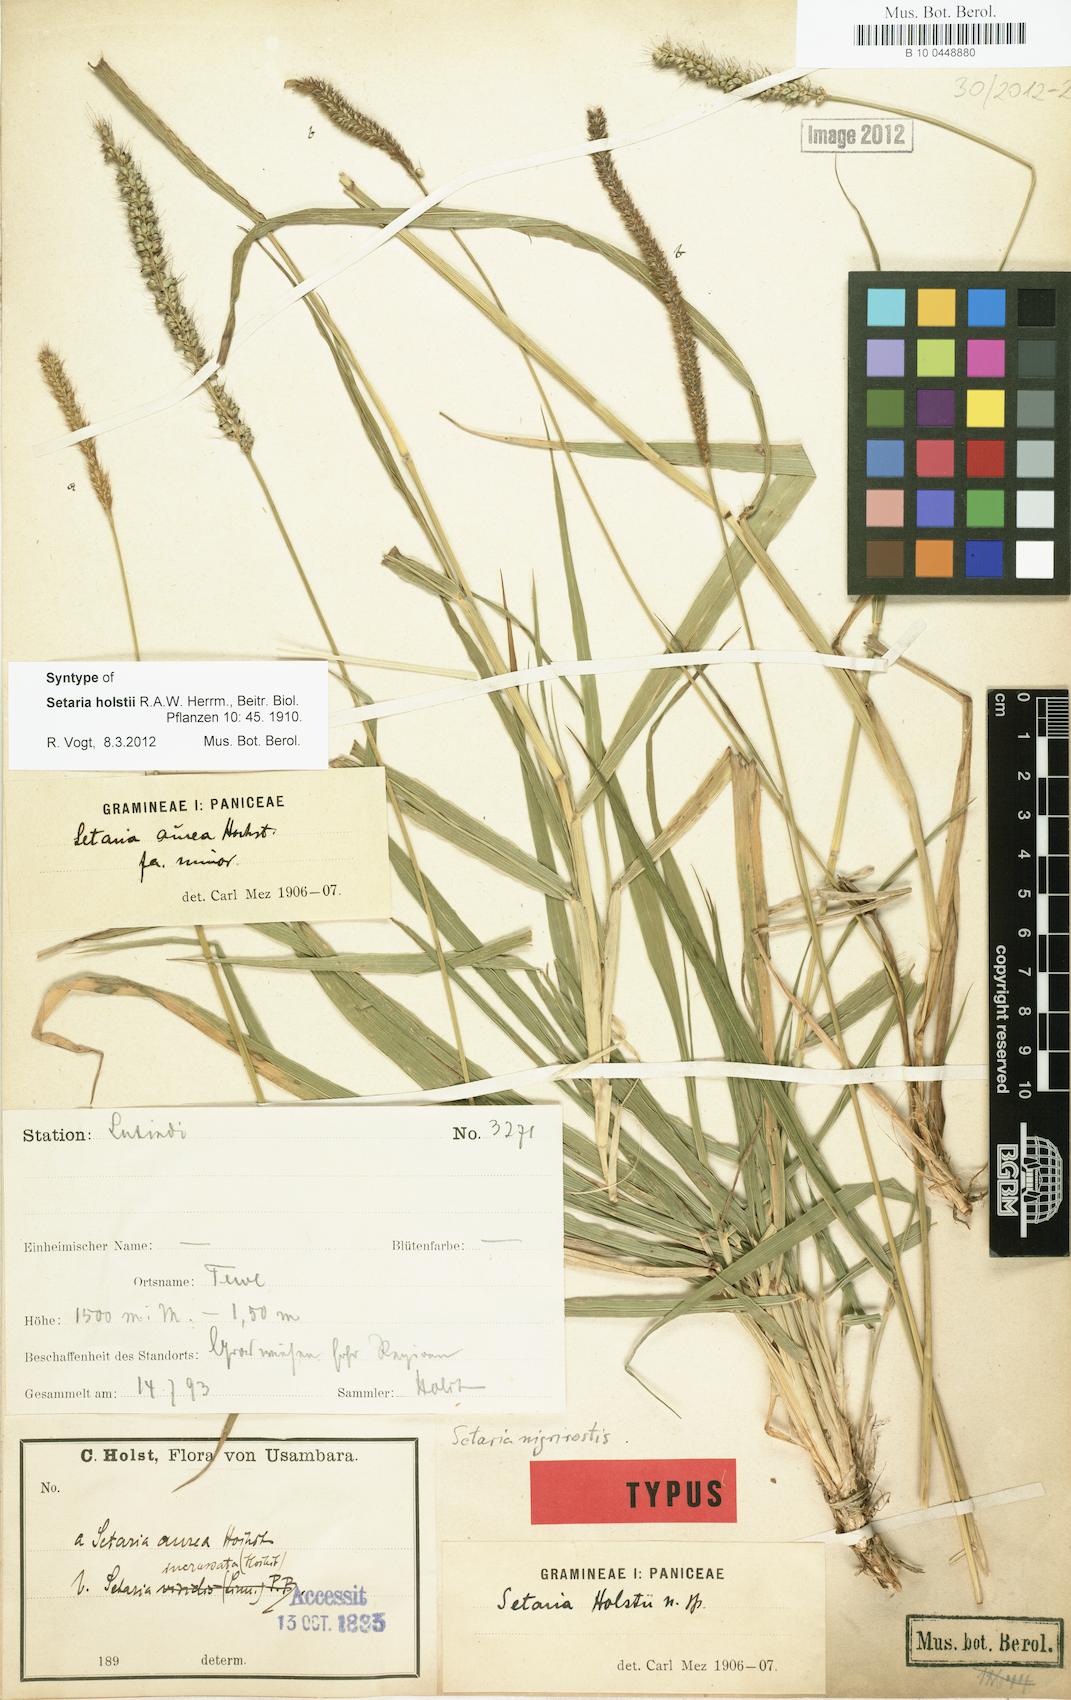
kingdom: Plantae
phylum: Tracheophyta
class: Liliopsida
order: Poales
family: Poaceae
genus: Setaria
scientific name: Setaria incrassata
